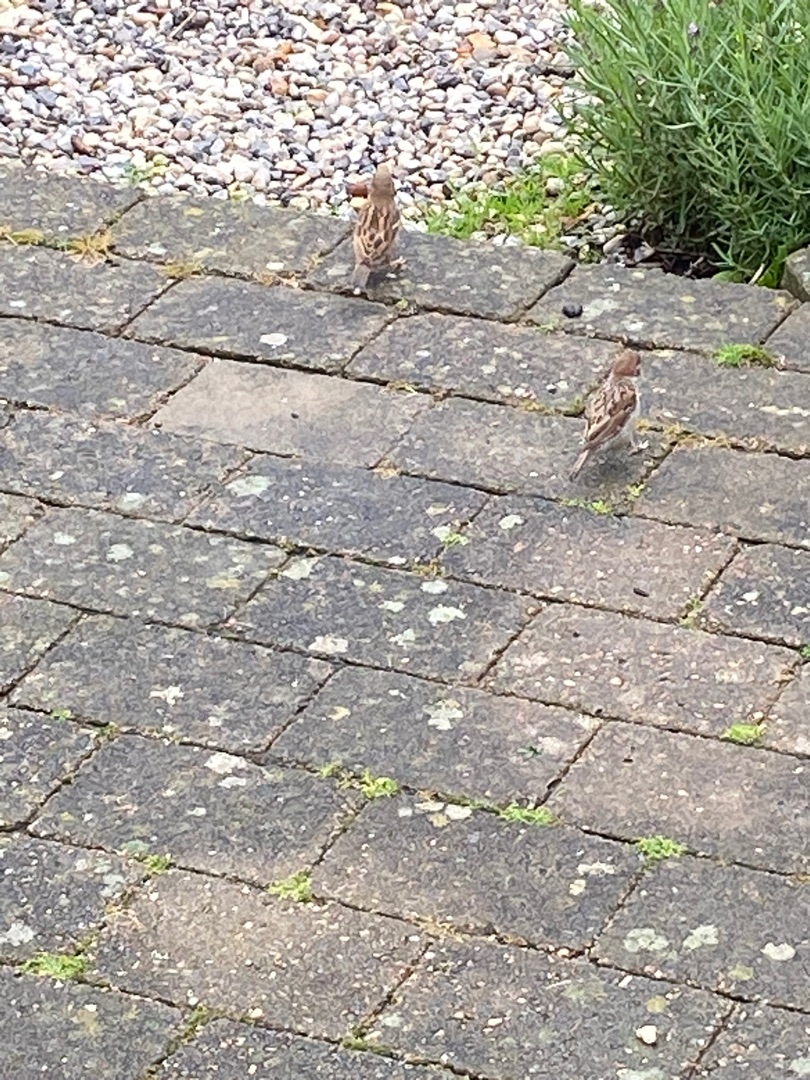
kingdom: Animalia
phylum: Chordata
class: Aves
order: Passeriformes
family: Passeridae
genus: Passer
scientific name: Passer montanus
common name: Skovspurv
